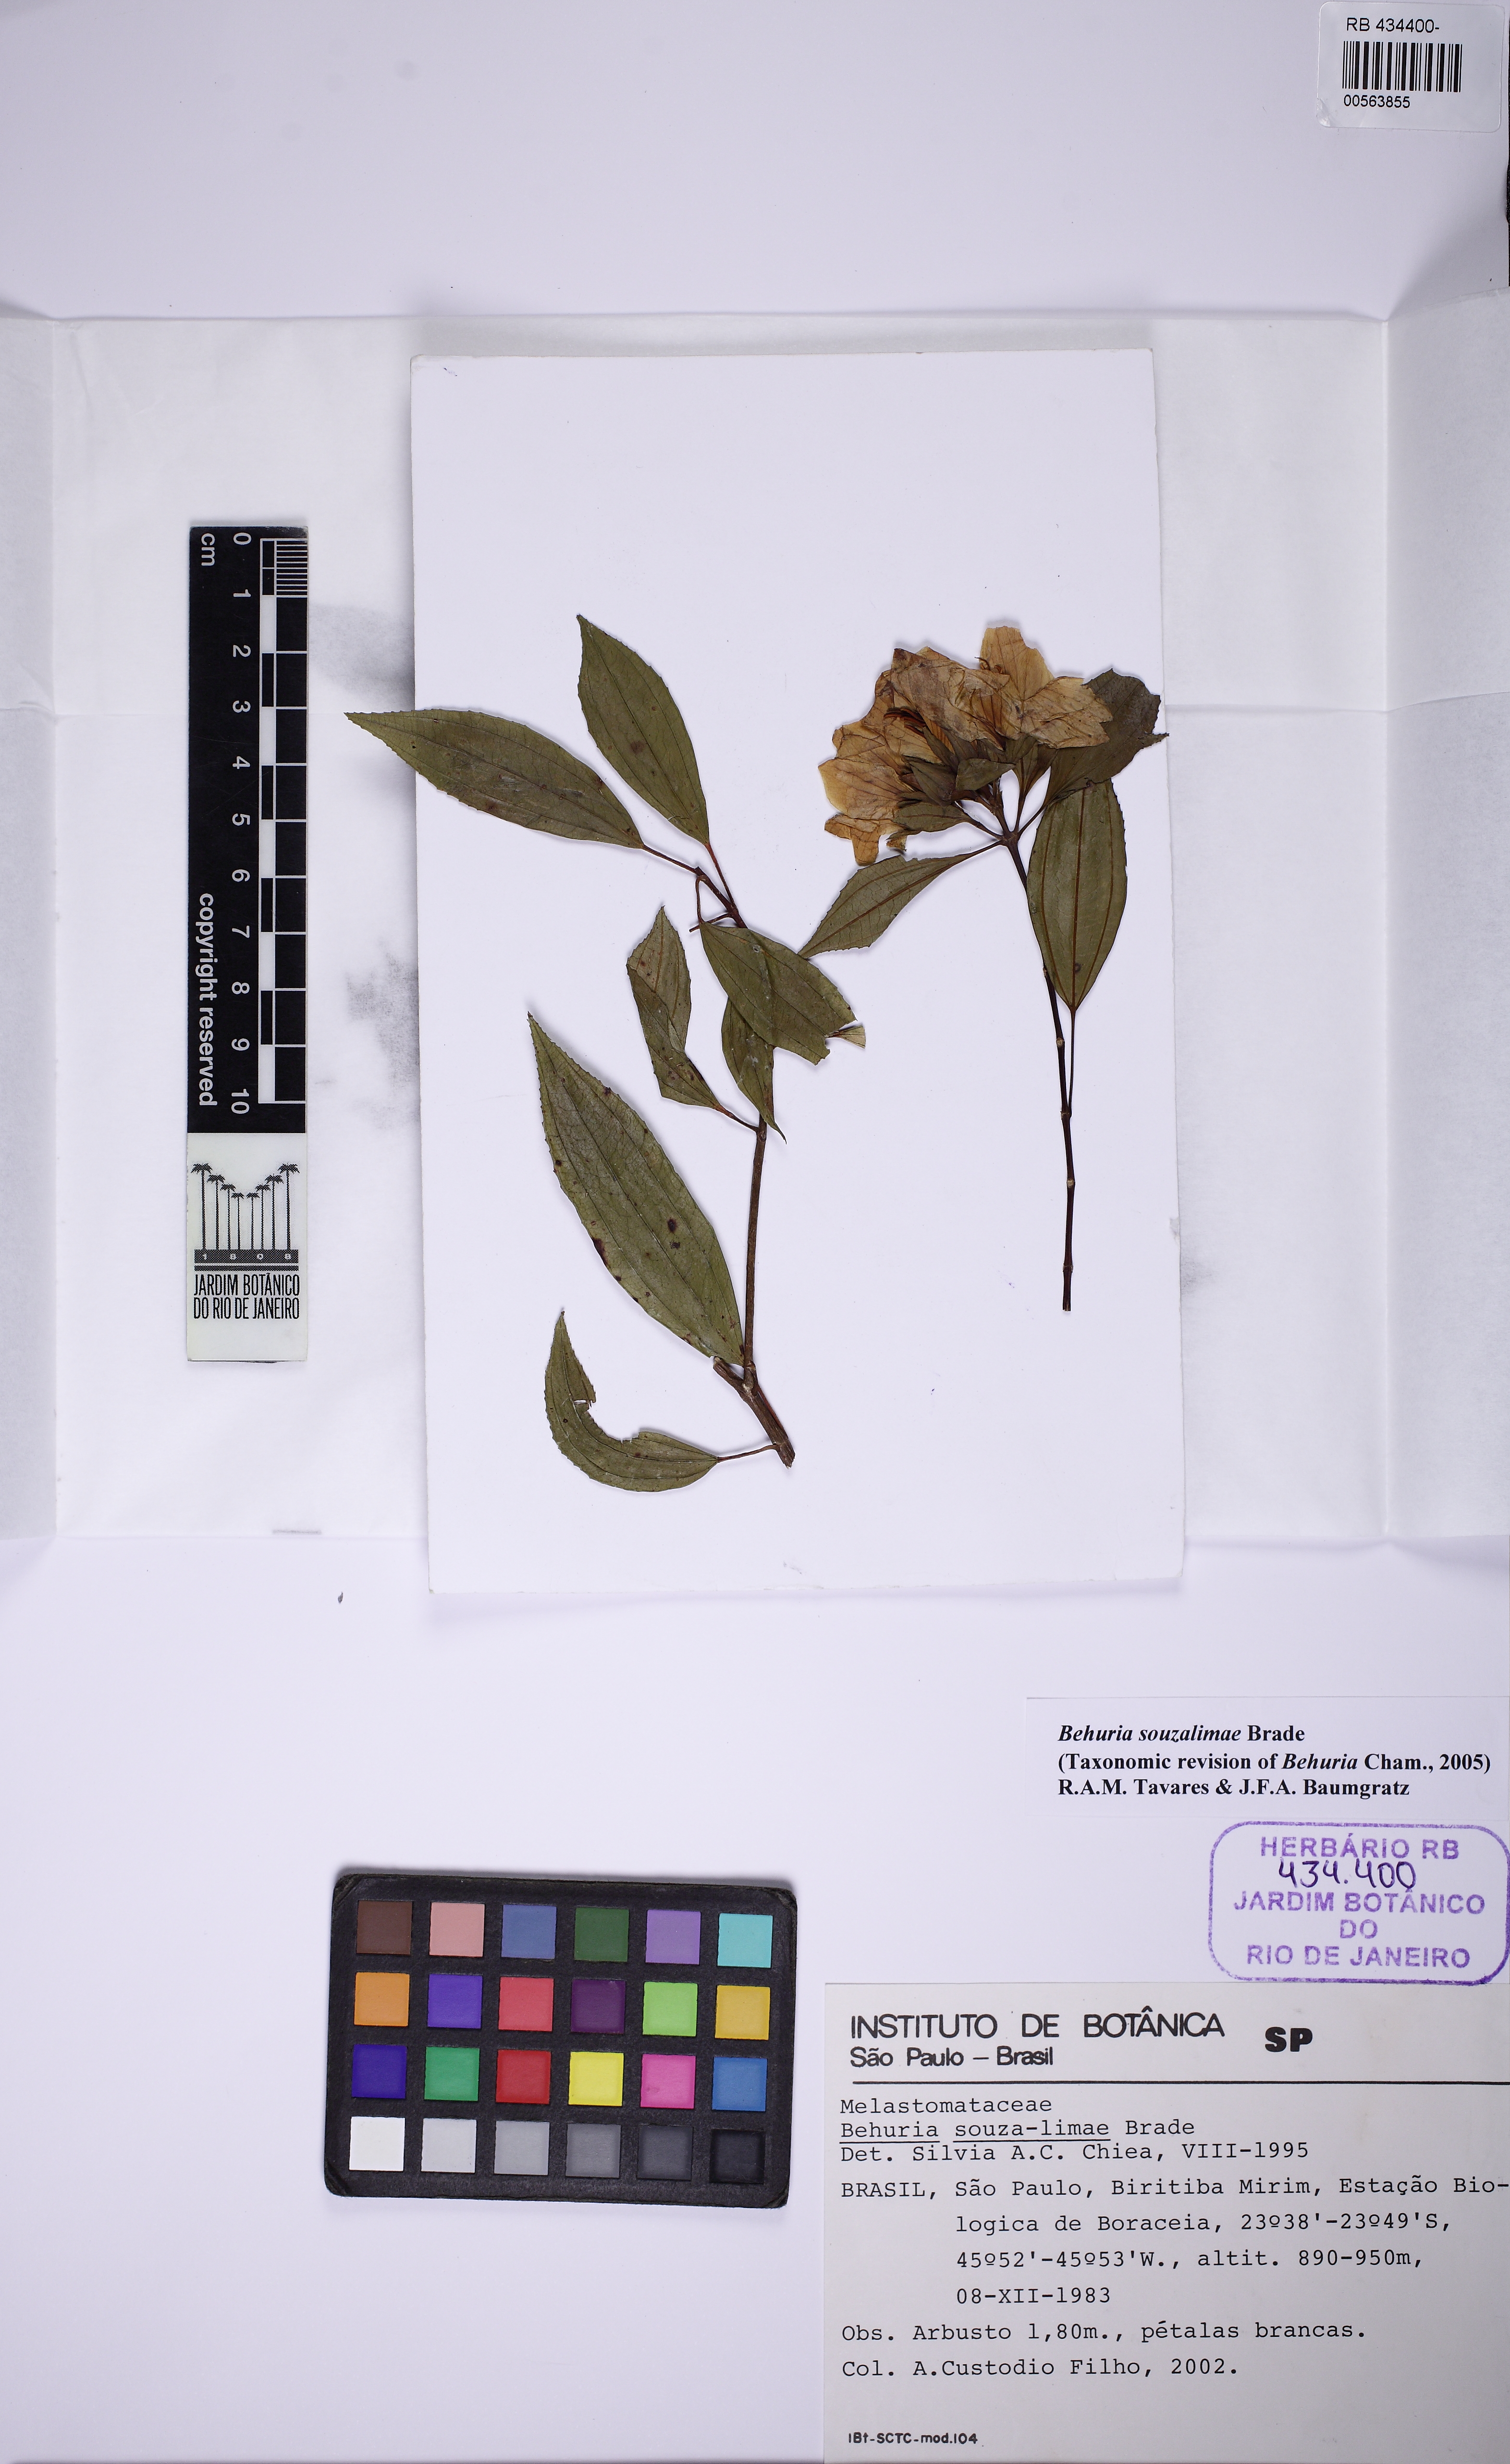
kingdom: Plantae
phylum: Tracheophyta
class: Magnoliopsida
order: Myrtales
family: Melastomataceae
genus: Huberia
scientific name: Huberia souza-limae
